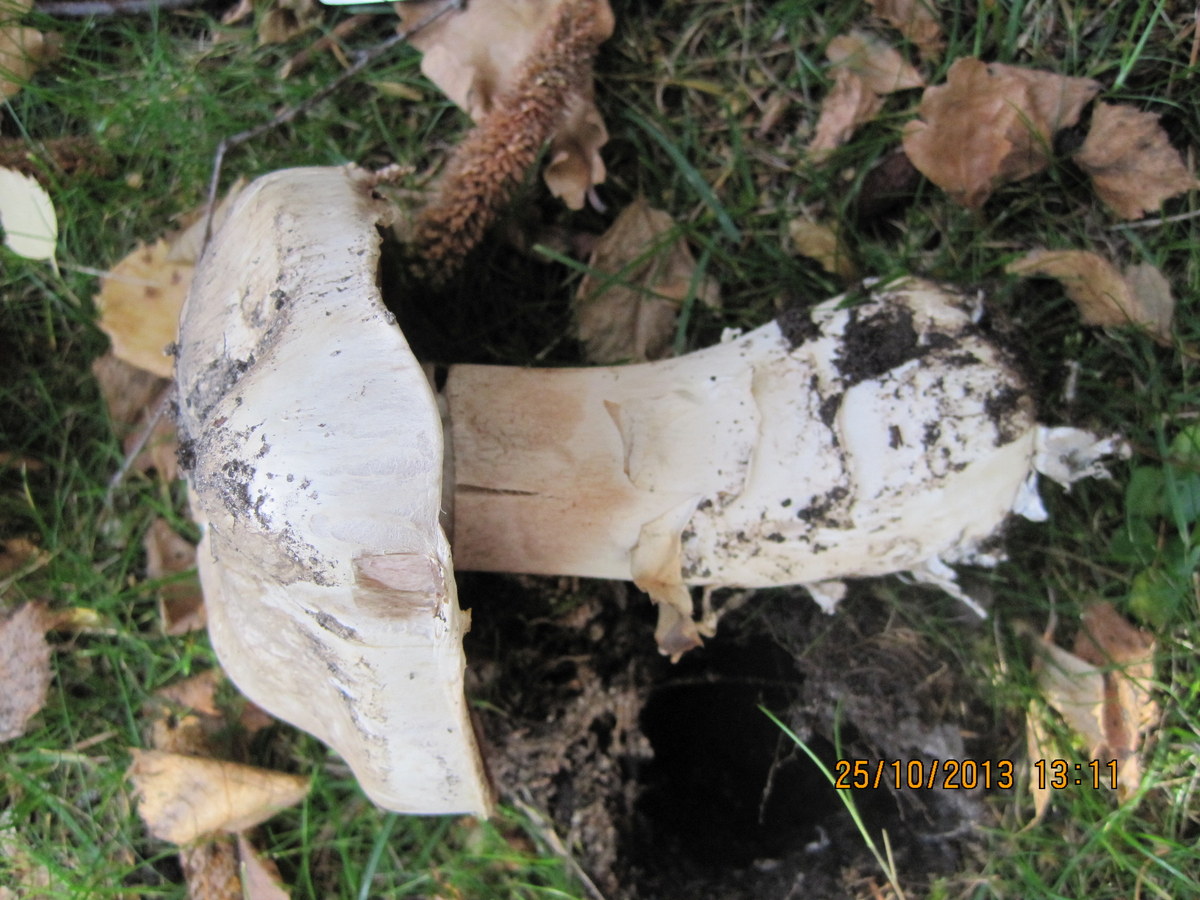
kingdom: Fungi
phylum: Basidiomycota
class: Agaricomycetes
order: Agaricales
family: Agaricaceae
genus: Agaricus
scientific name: Agaricus bernardii
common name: strandengs-champignon
